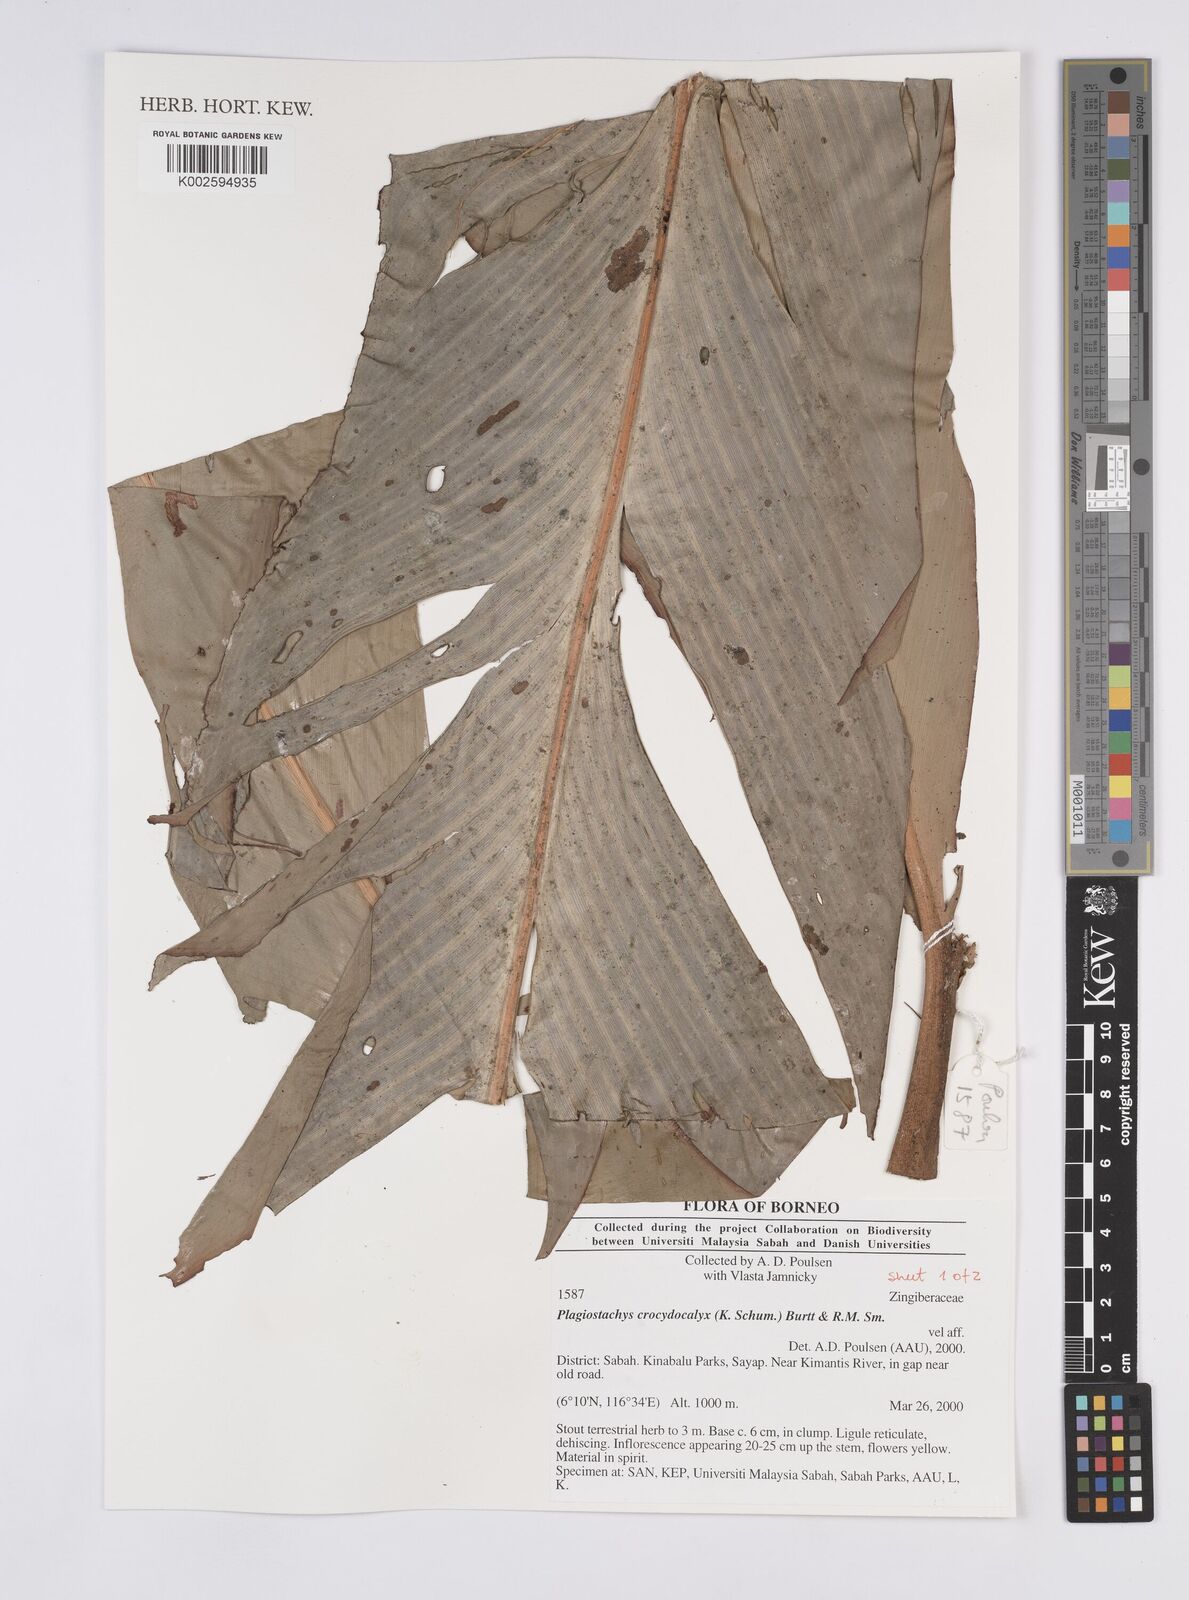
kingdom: Plantae
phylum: Tracheophyta
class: Liliopsida
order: Zingiberales
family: Zingiberaceae
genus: Plagiostachys
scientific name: Plagiostachys crocydocalyx
